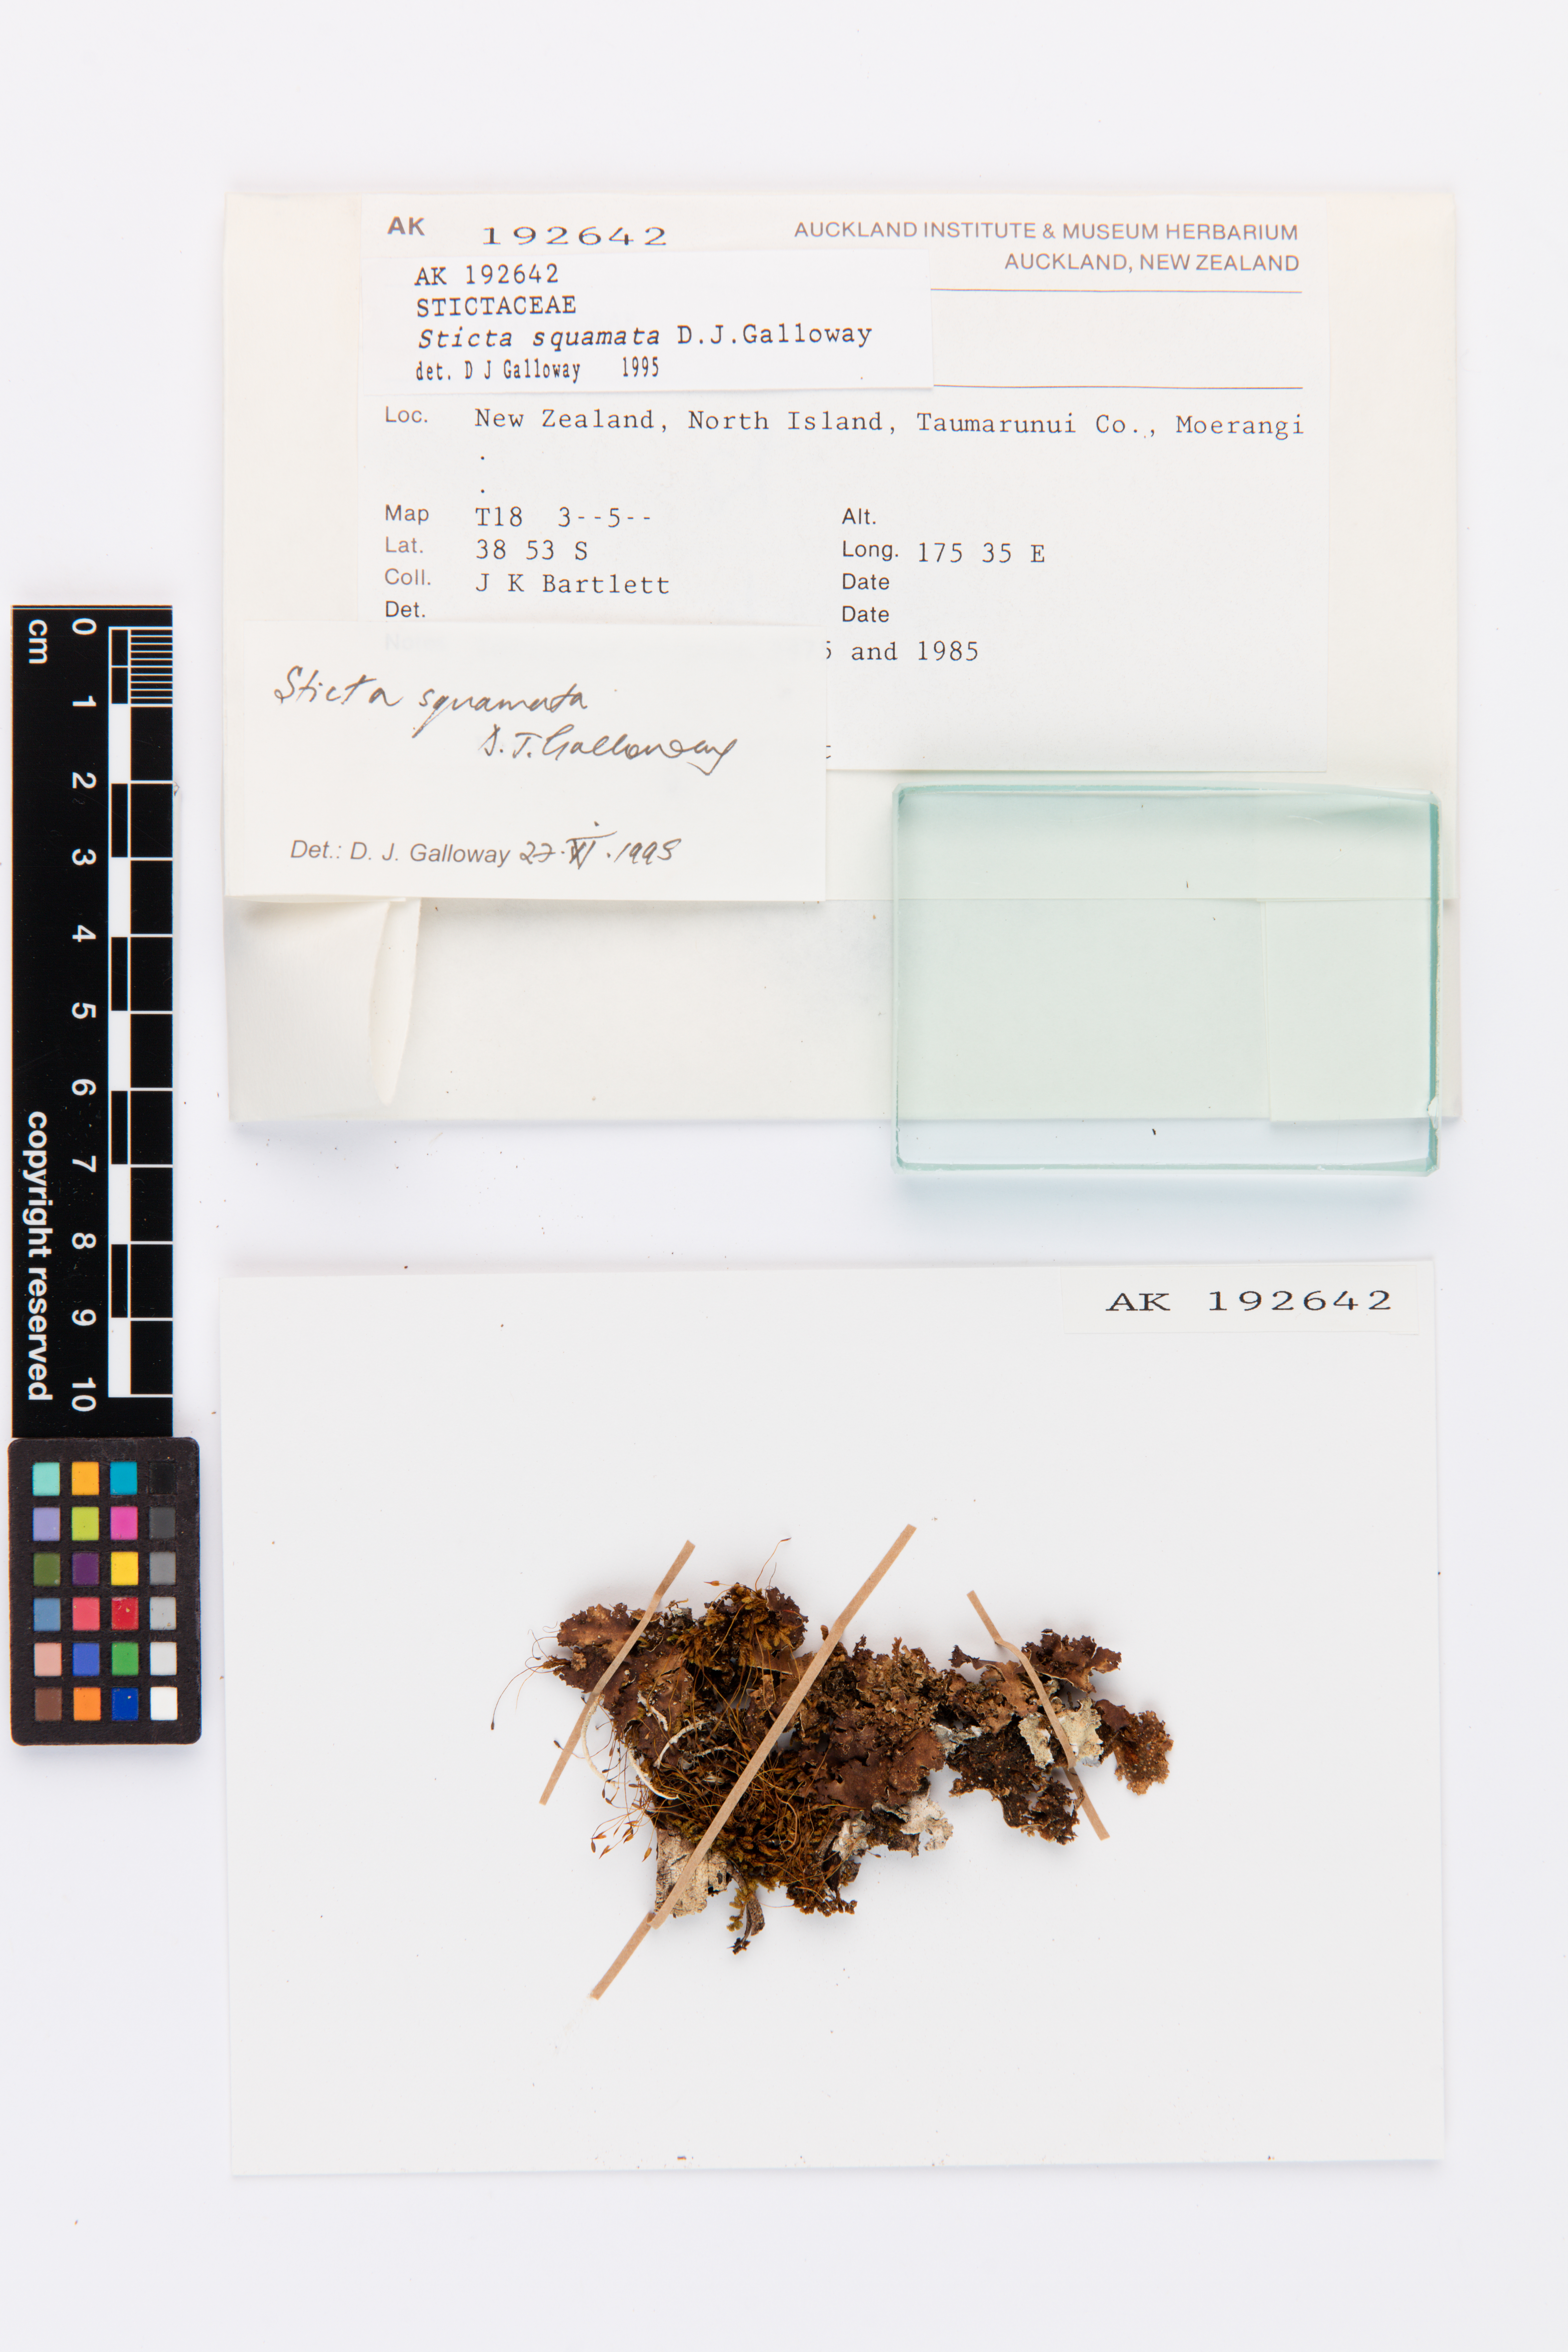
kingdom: Fungi
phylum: Ascomycota
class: Lecanoromycetes
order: Peltigerales
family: Lobariaceae
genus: Sticta
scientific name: Sticta squamata
